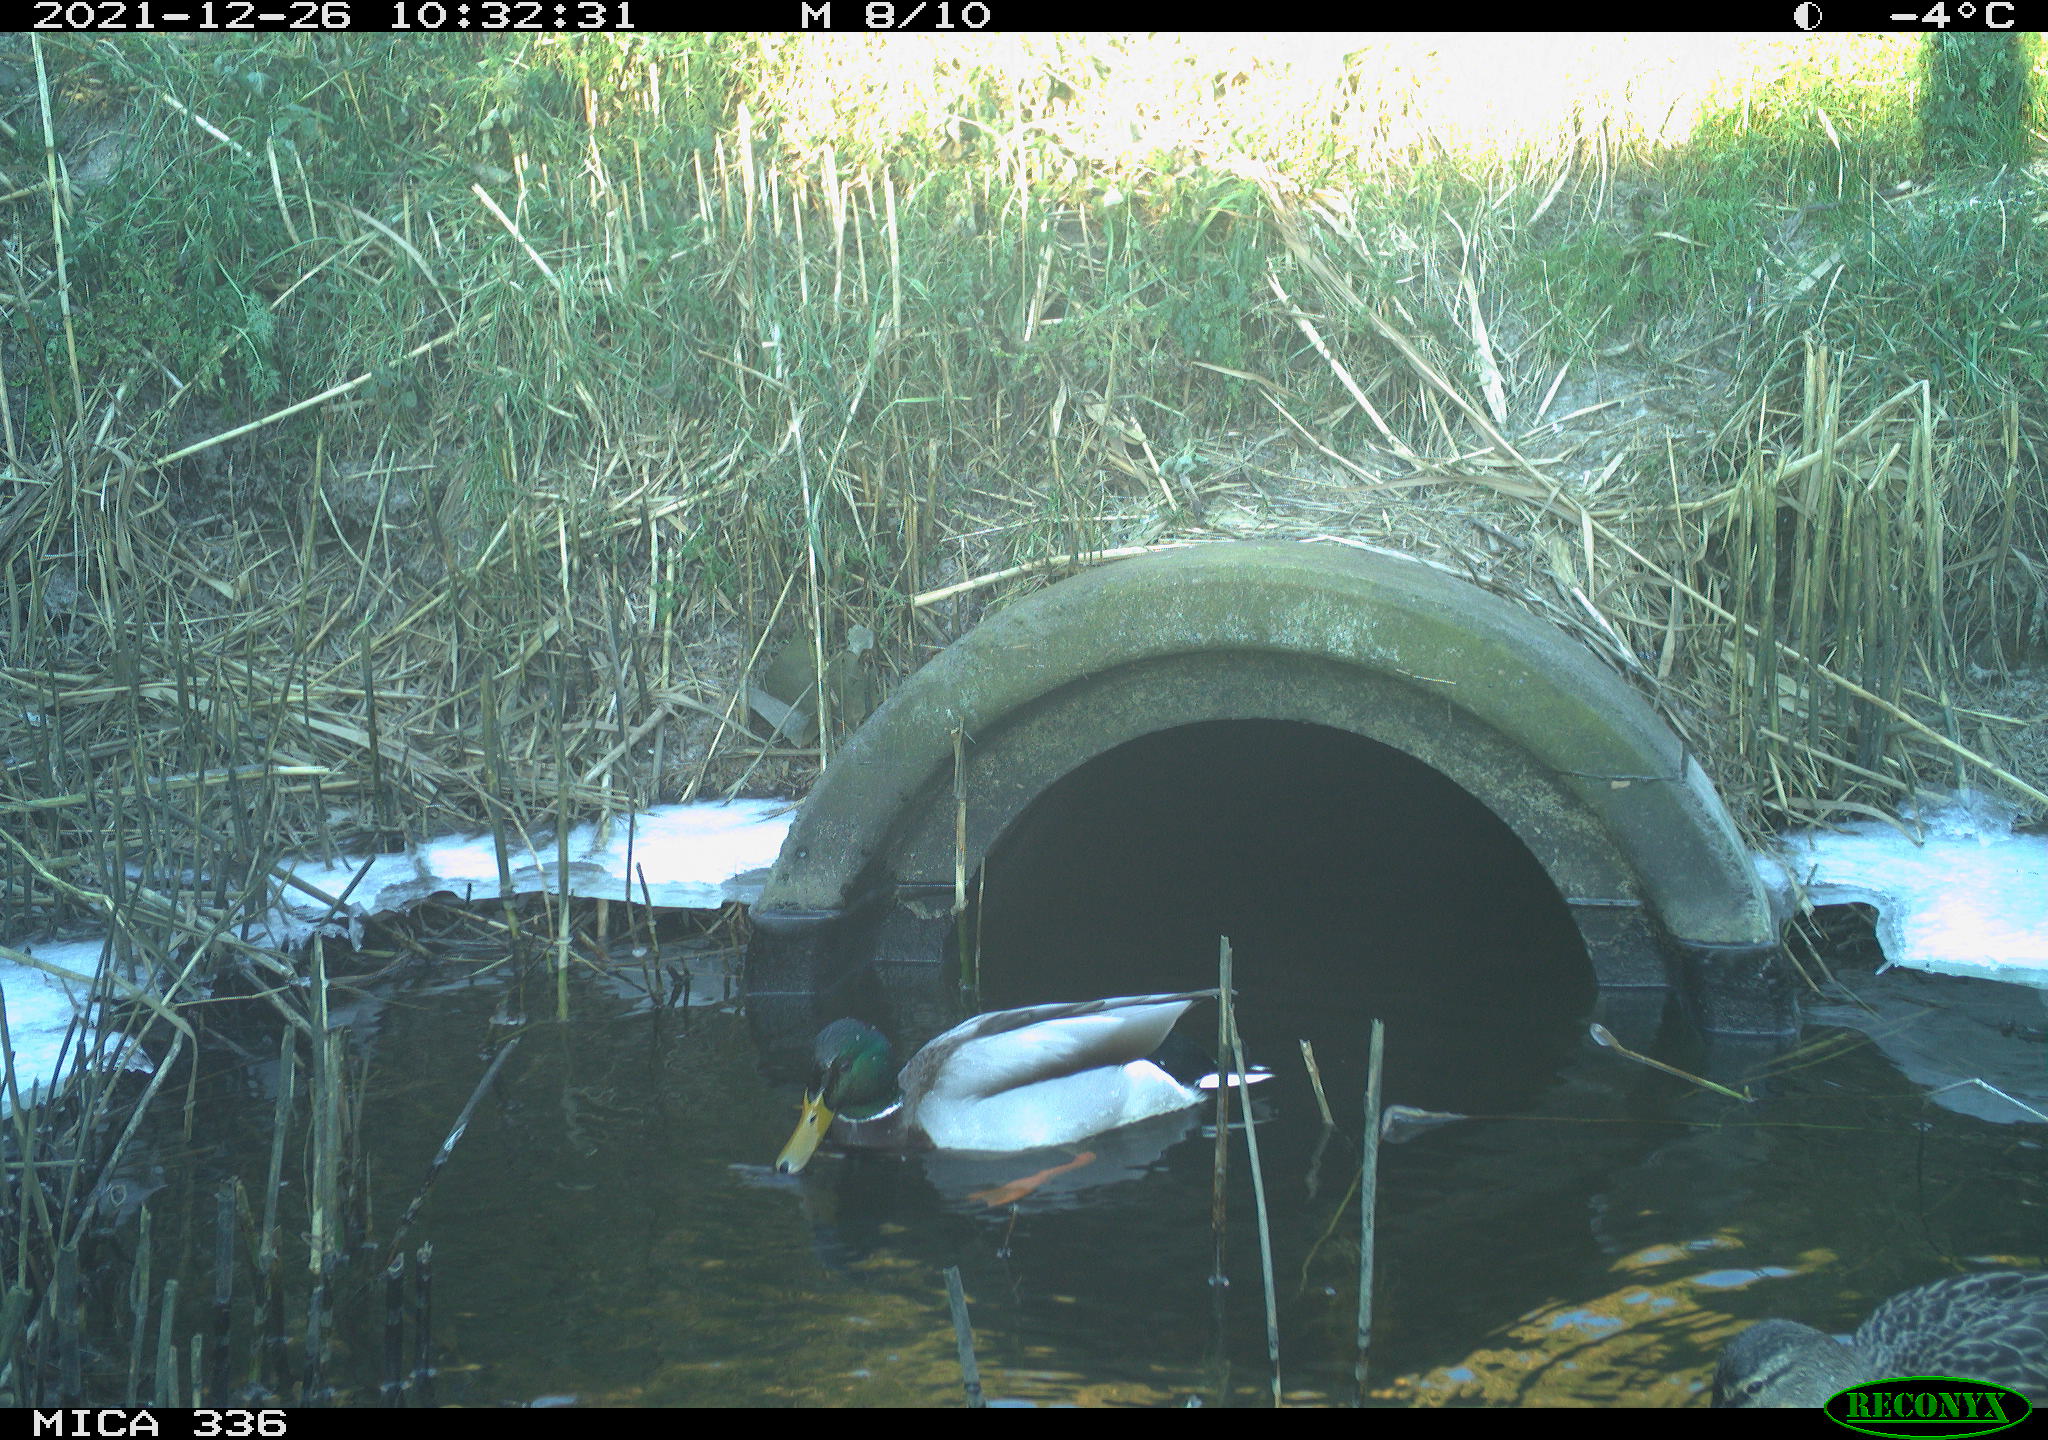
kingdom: Animalia
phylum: Chordata
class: Aves
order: Anseriformes
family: Anatidae
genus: Anas
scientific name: Anas platyrhynchos
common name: Mallard
